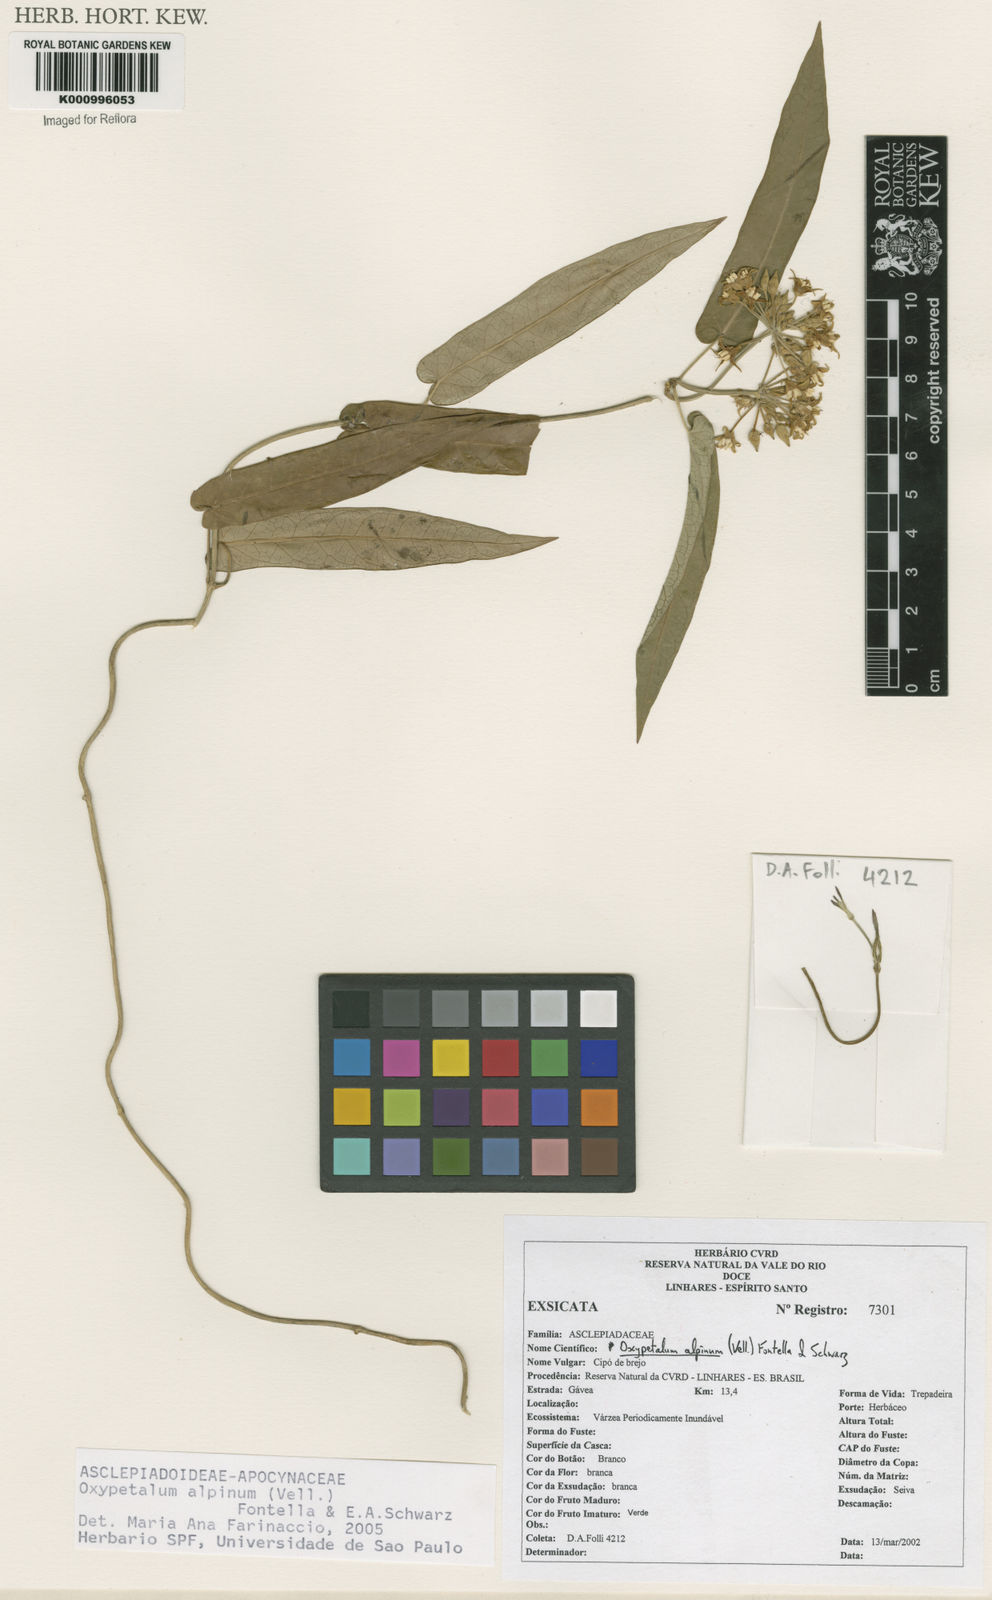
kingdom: Plantae
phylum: Tracheophyta
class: Magnoliopsida
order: Gentianales
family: Apocynaceae
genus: Oxypetalum
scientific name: Oxypetalum alpinum
